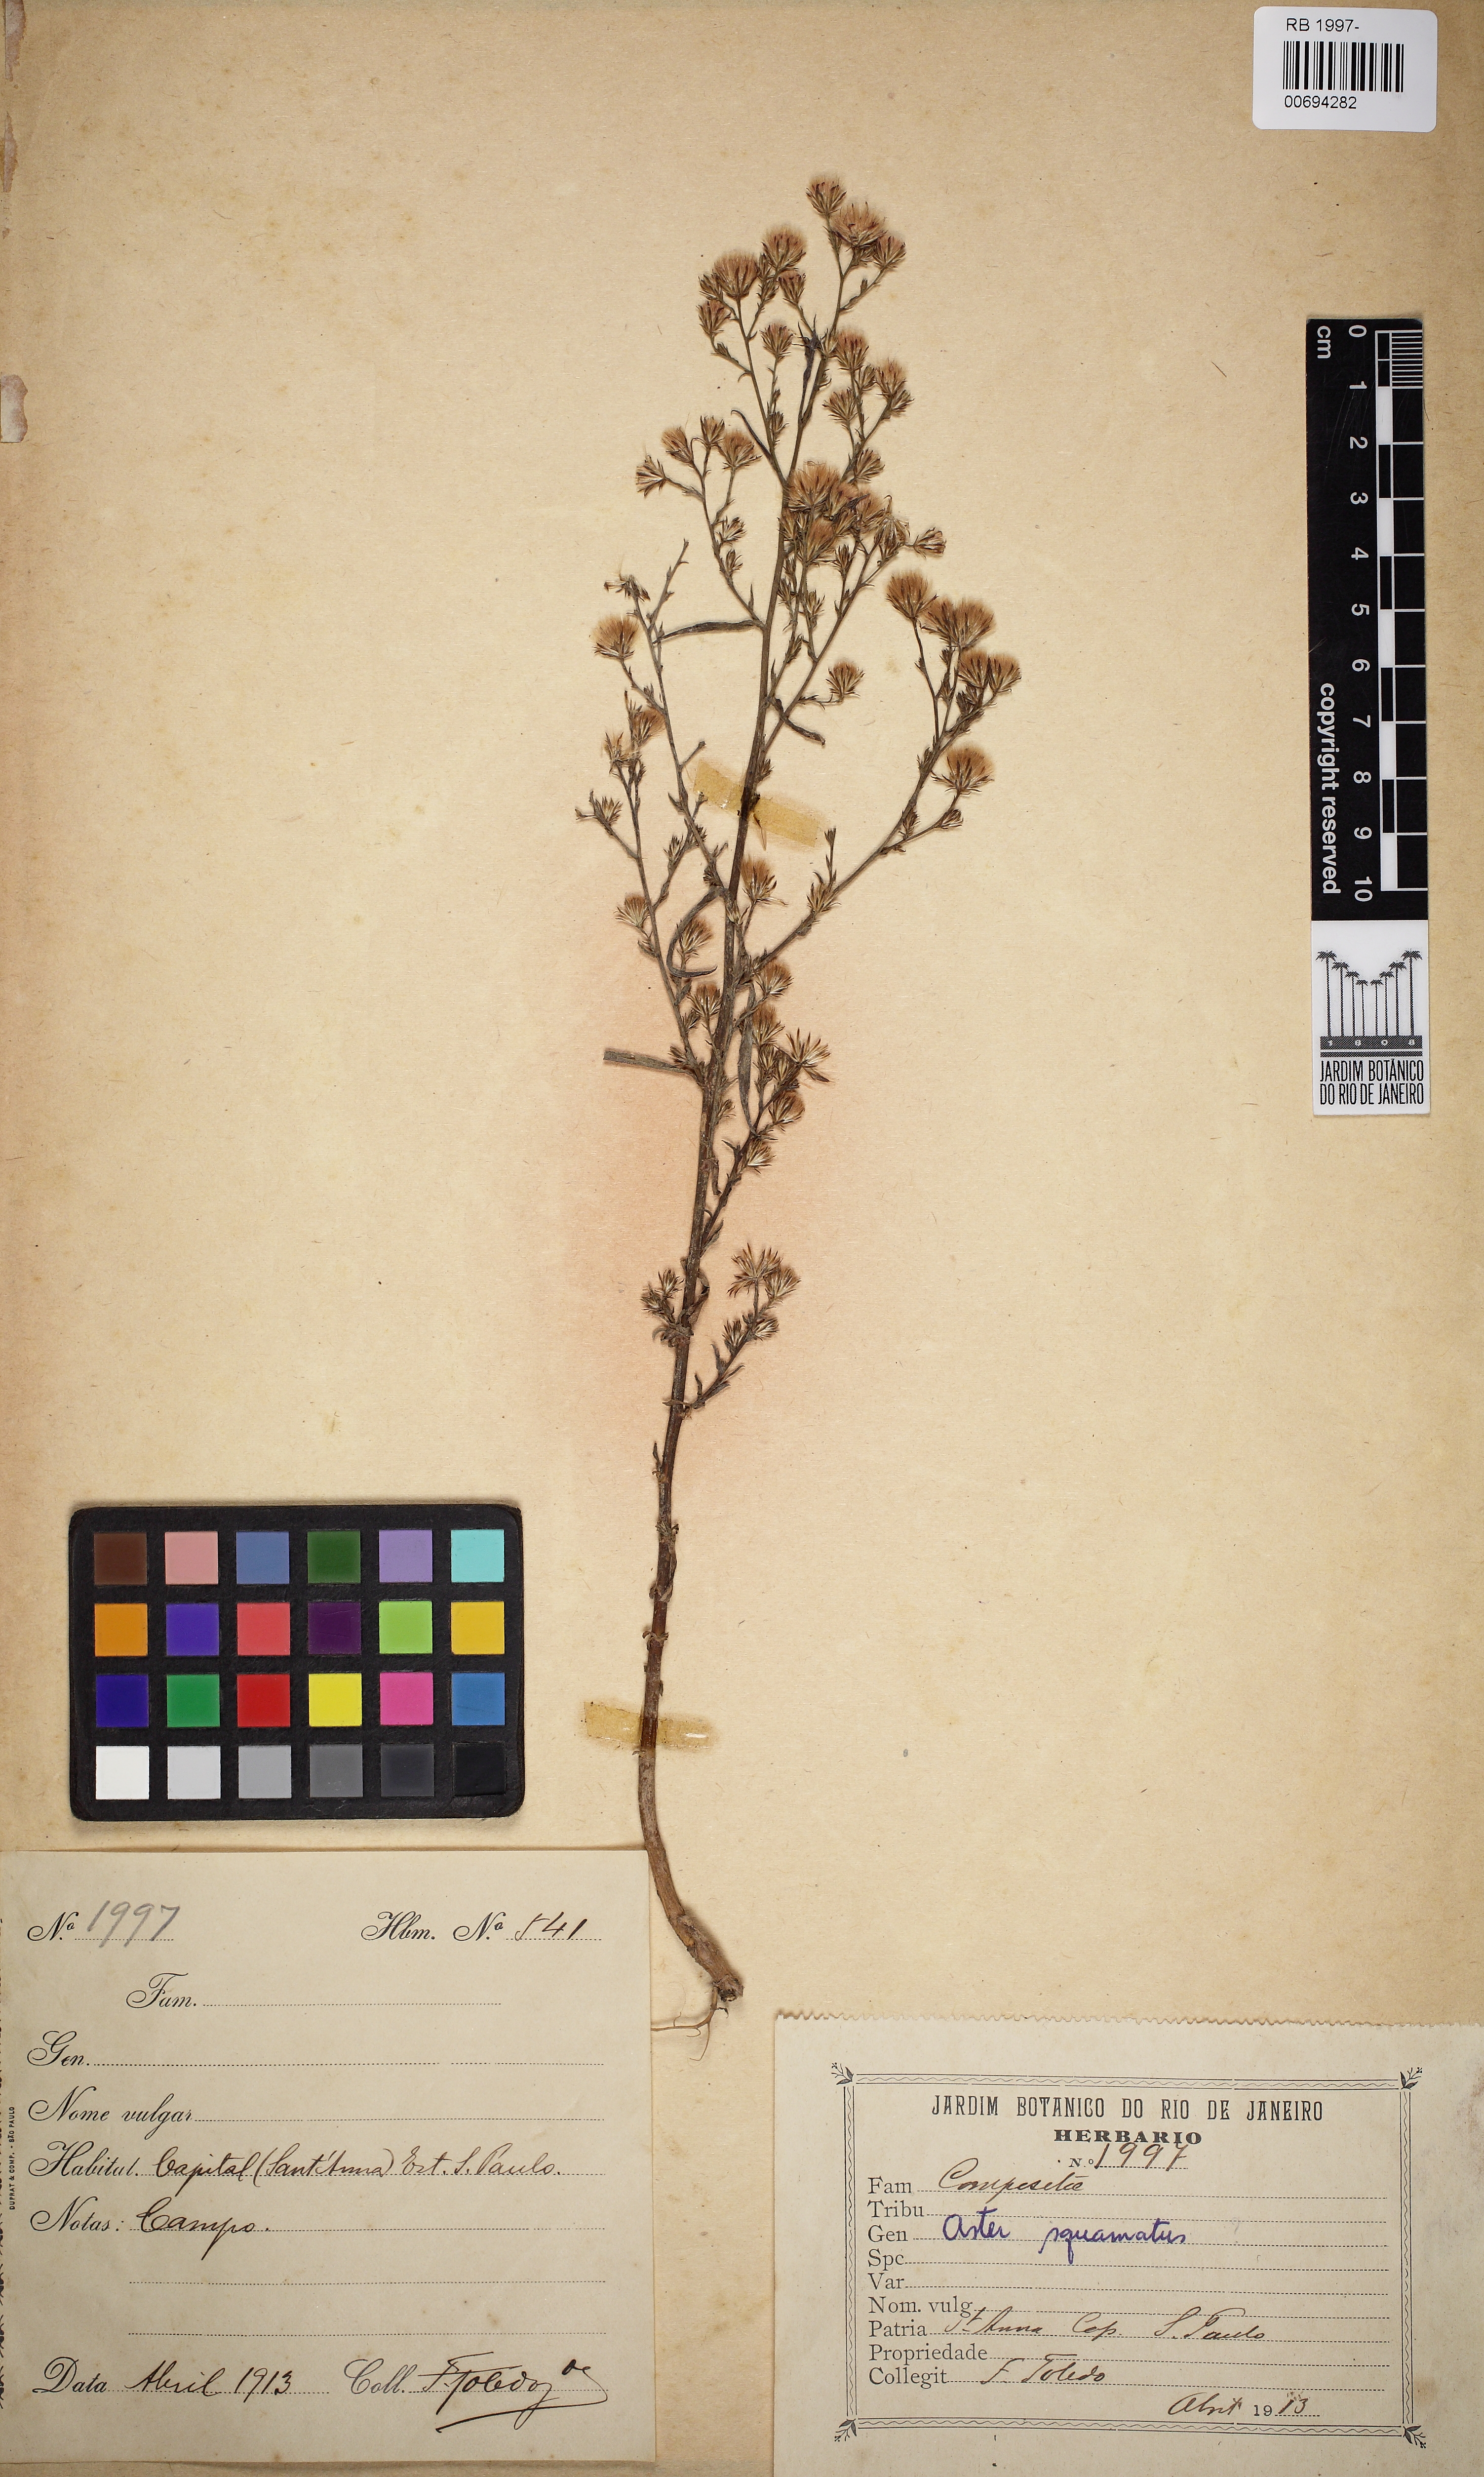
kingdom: Plantae
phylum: Tracheophyta
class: Magnoliopsida
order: Asterales
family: Asteraceae
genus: Symphyotrichum
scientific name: Symphyotrichum squamatum
